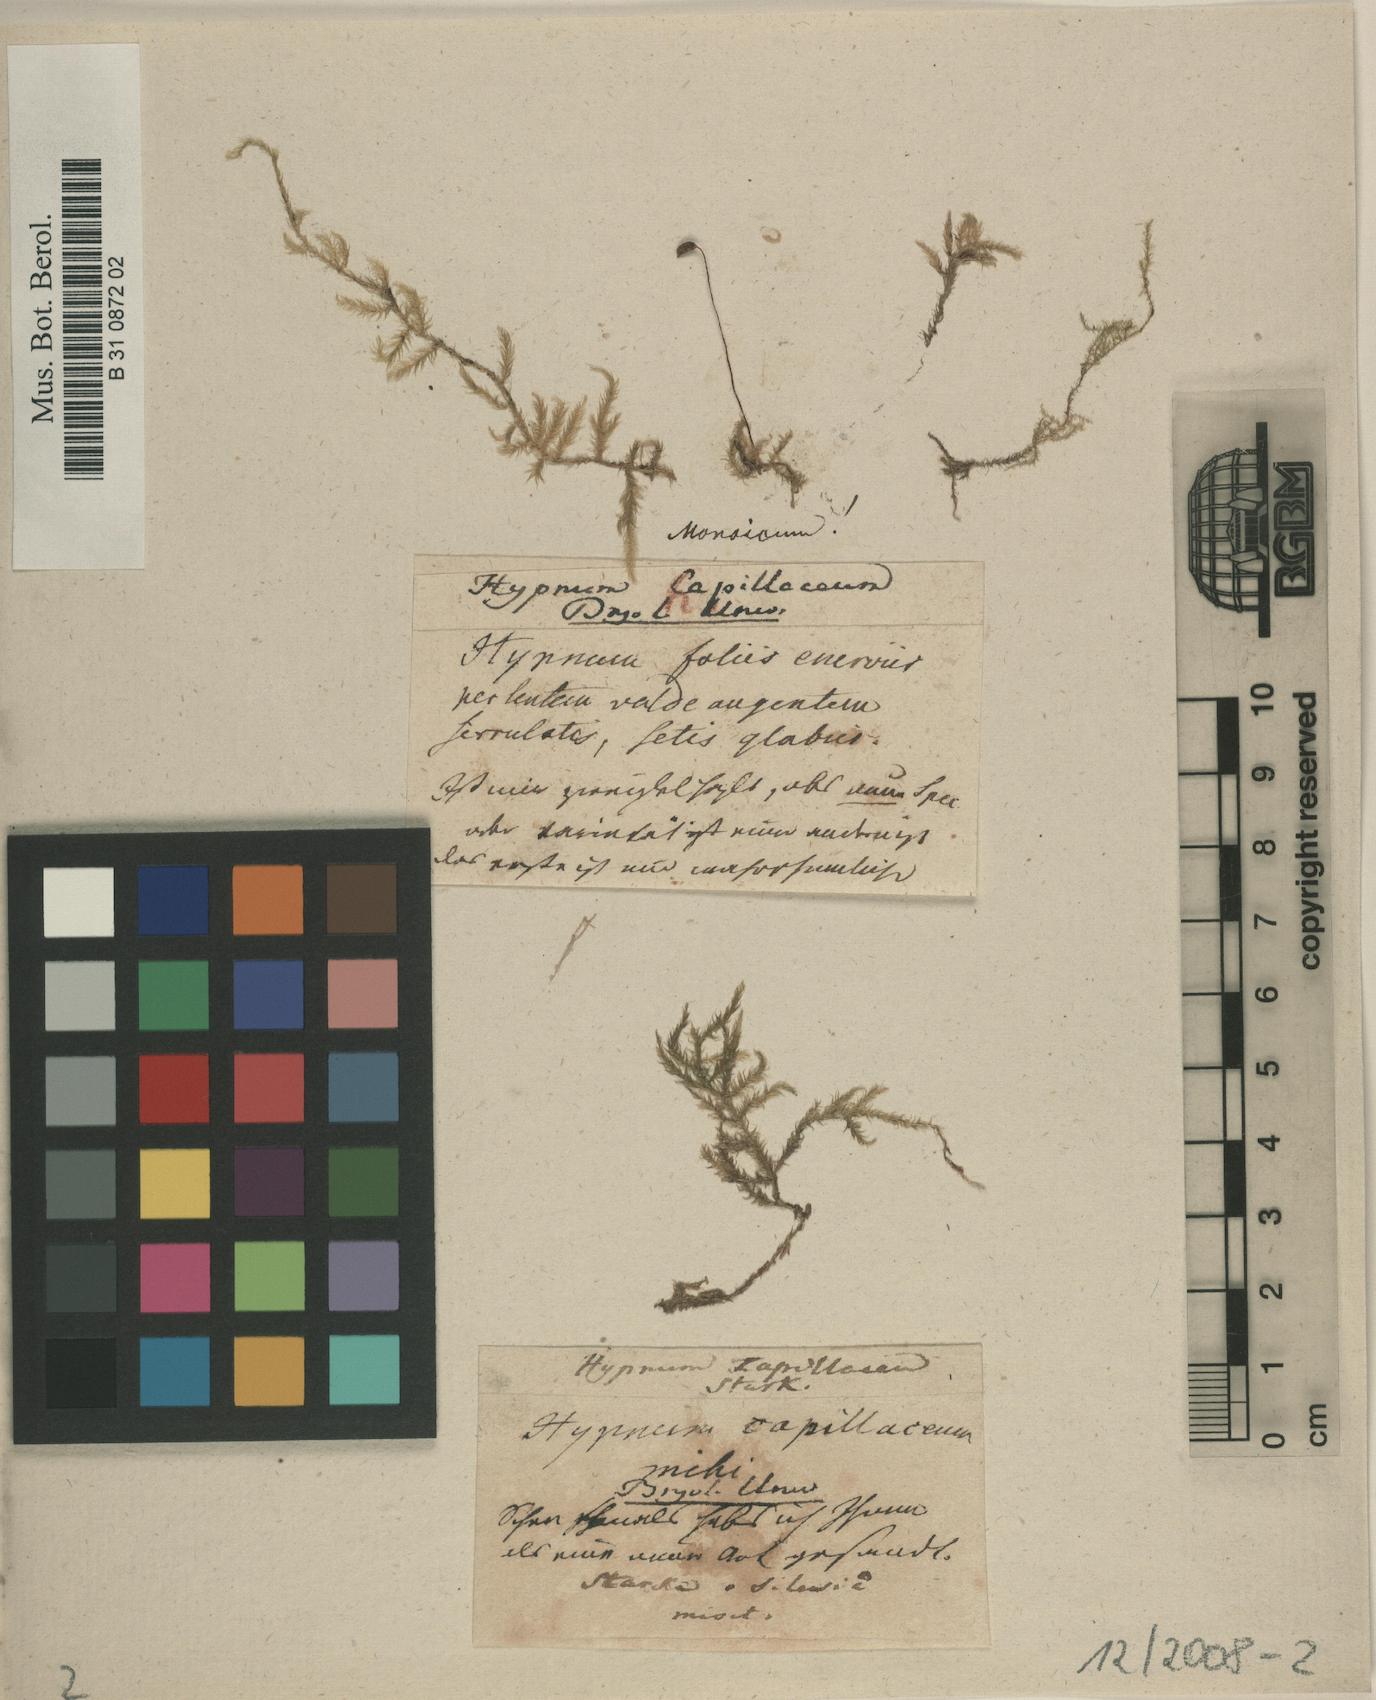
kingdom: Plantae
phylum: Bryophyta
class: Bryopsida
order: Hypnales
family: Brachytheciaceae
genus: Brachythecium
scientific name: Brachythecium rotaeanum
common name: Glaucous green ragged moss
